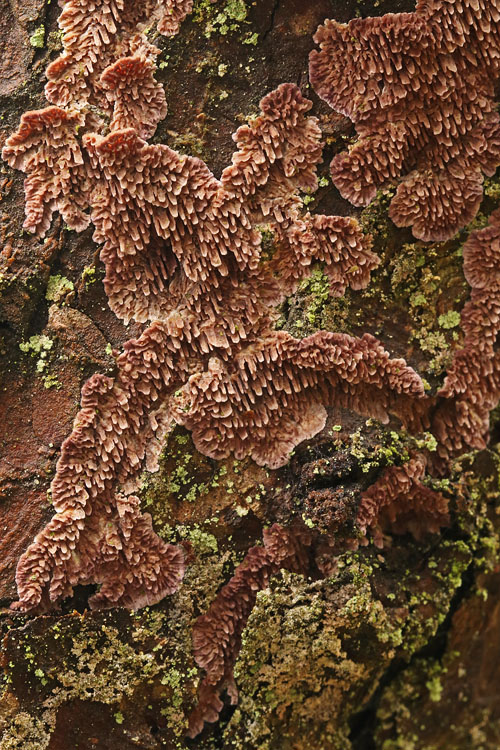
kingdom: Fungi
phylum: Basidiomycota
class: Agaricomycetes
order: Hymenochaetales
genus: Trichaptum
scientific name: Trichaptum fuscoviolaceum
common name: tandet violporesvamp
